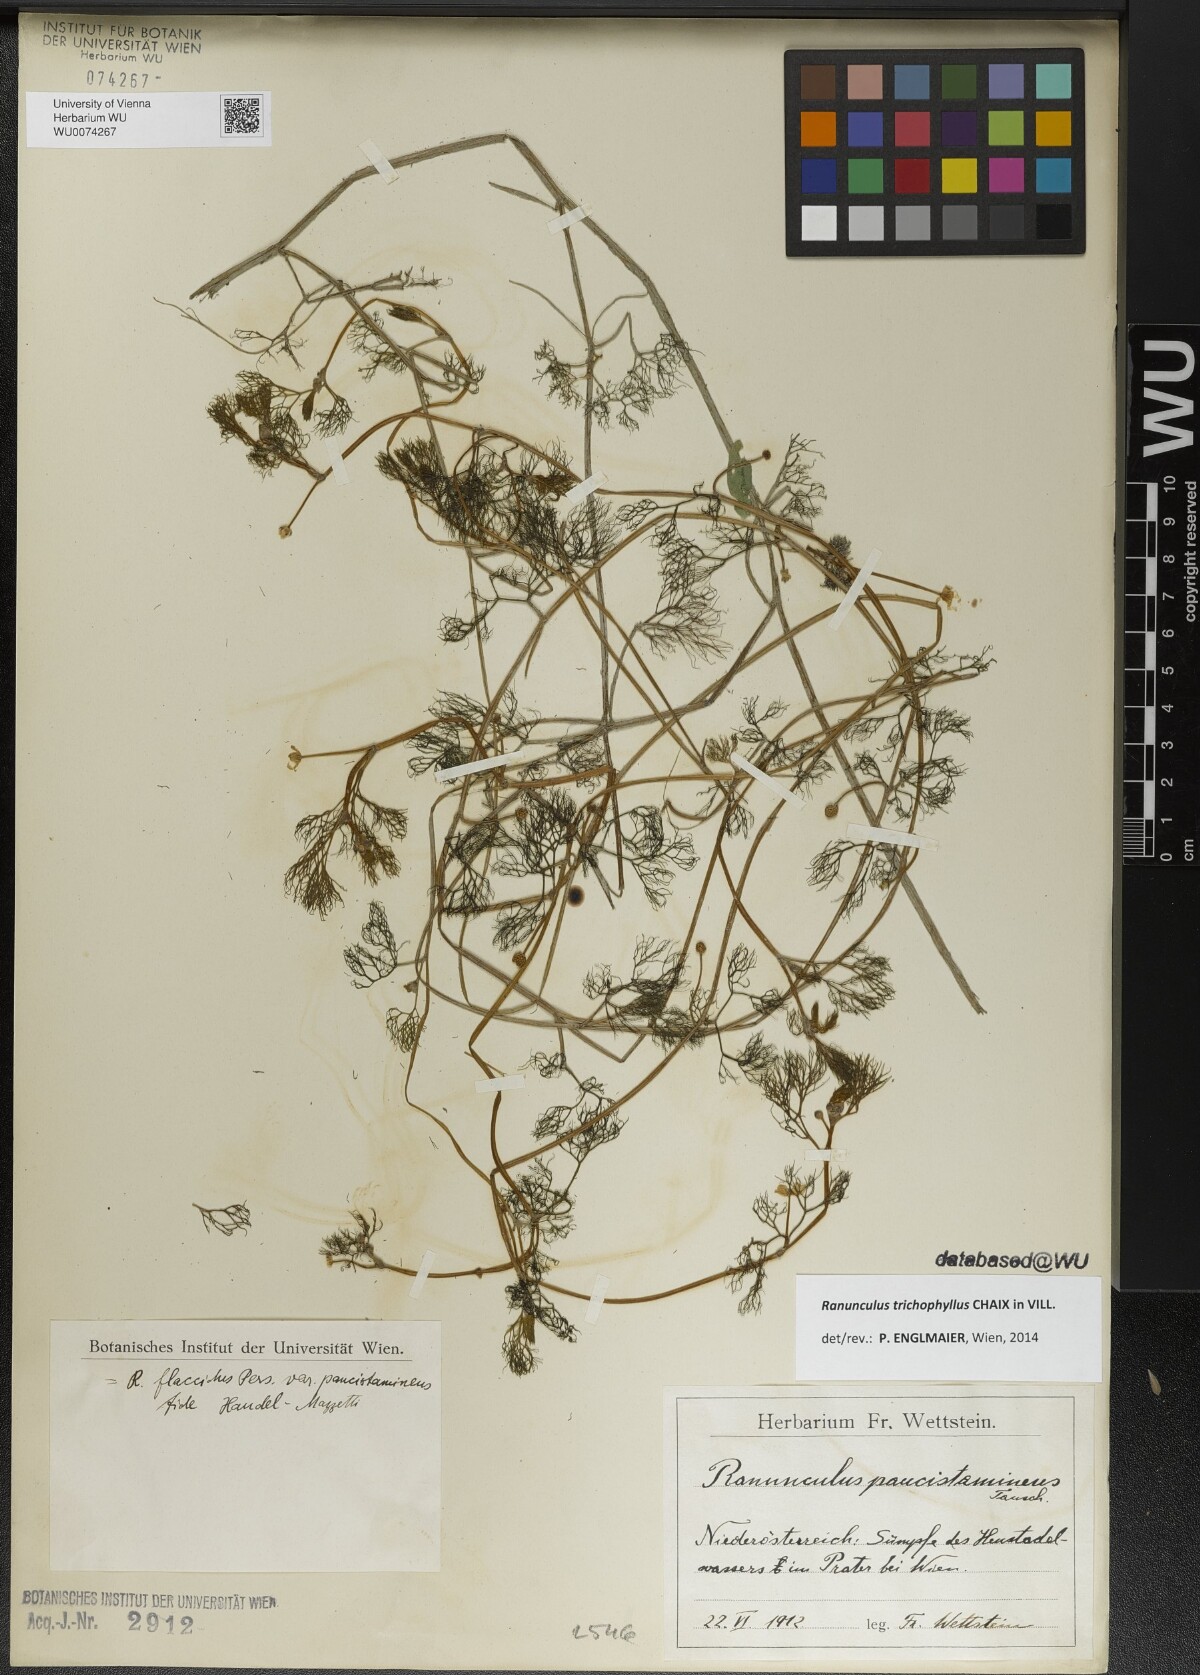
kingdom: Plantae
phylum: Tracheophyta
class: Magnoliopsida
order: Ranunculales
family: Ranunculaceae
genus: Ranunculus
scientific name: Ranunculus trichophyllus
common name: Thread-leaved water-crowfoot
